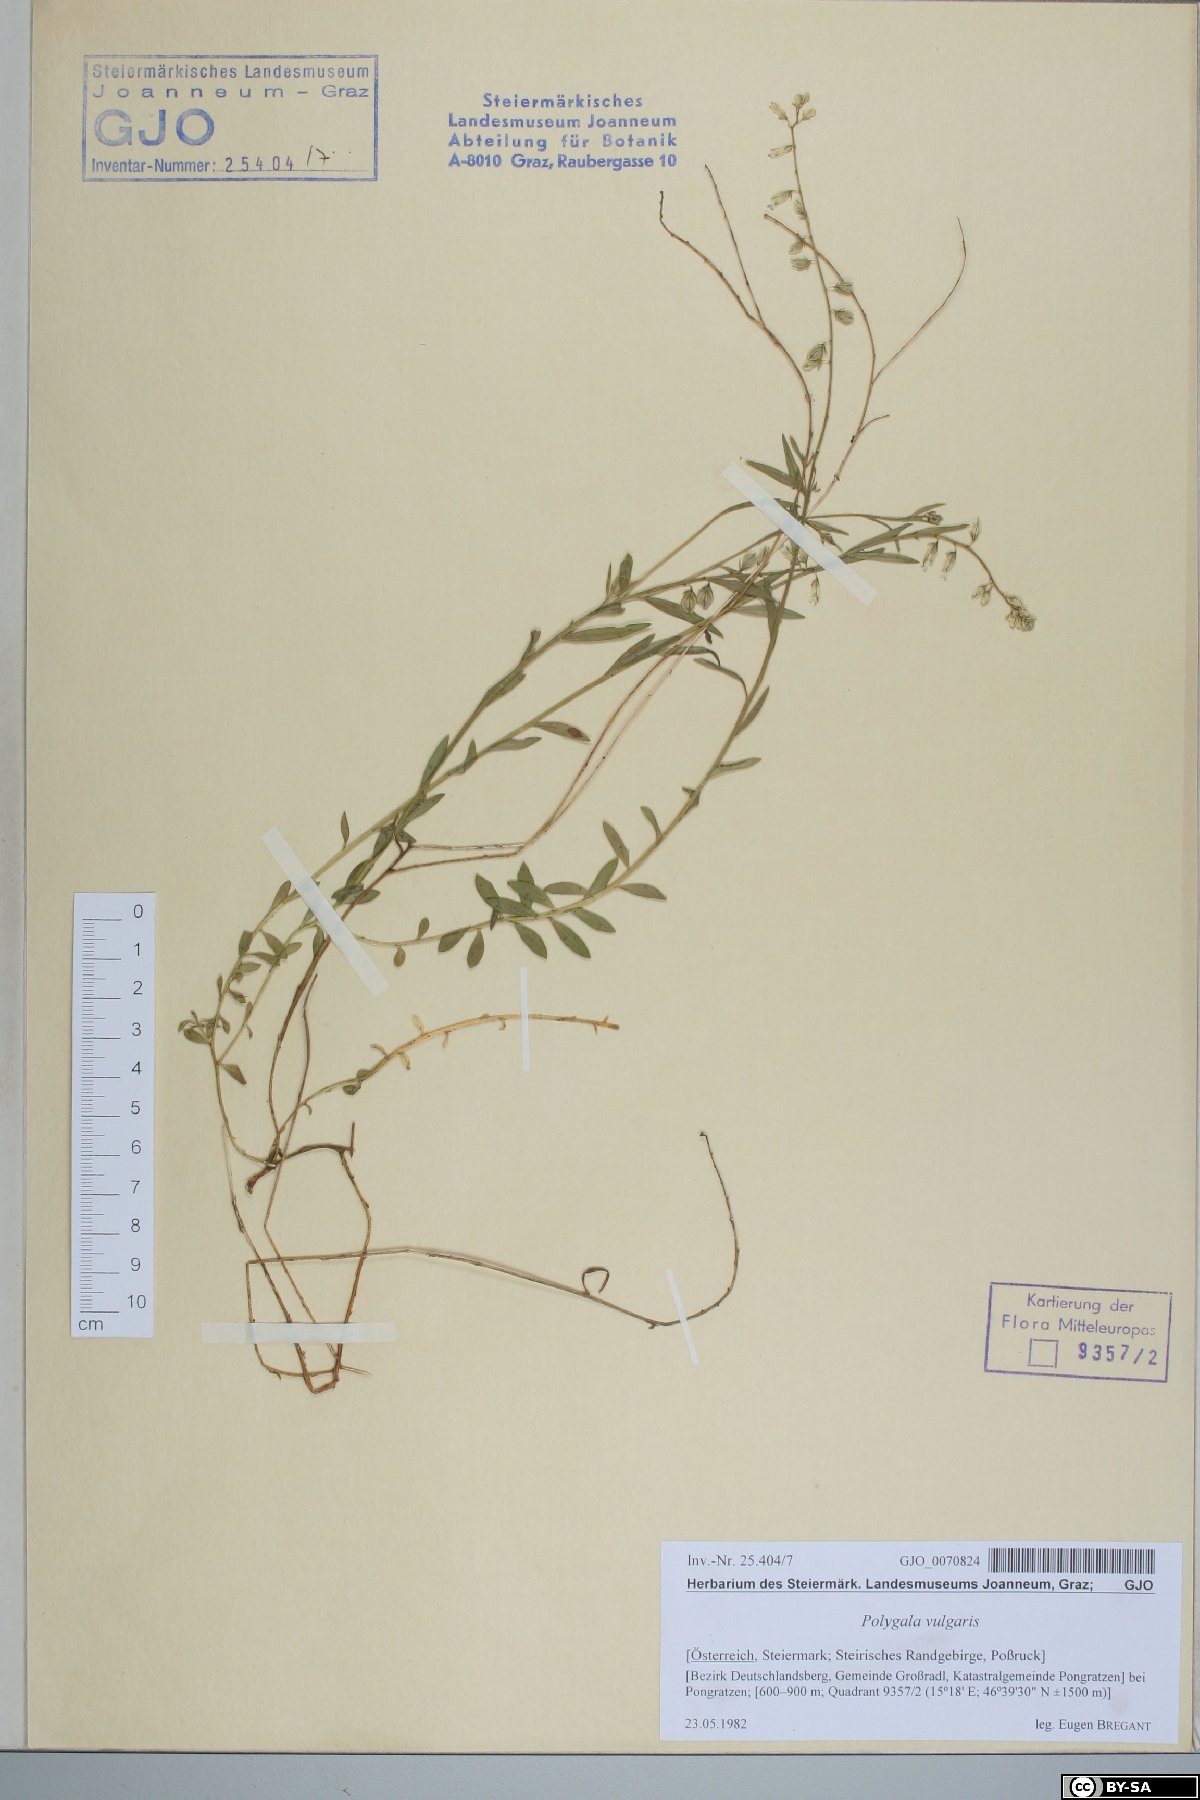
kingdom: Plantae
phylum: Tracheophyta
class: Magnoliopsida
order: Fabales
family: Polygalaceae
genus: Polygala
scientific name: Polygala vulgaris
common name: Common milkwort
